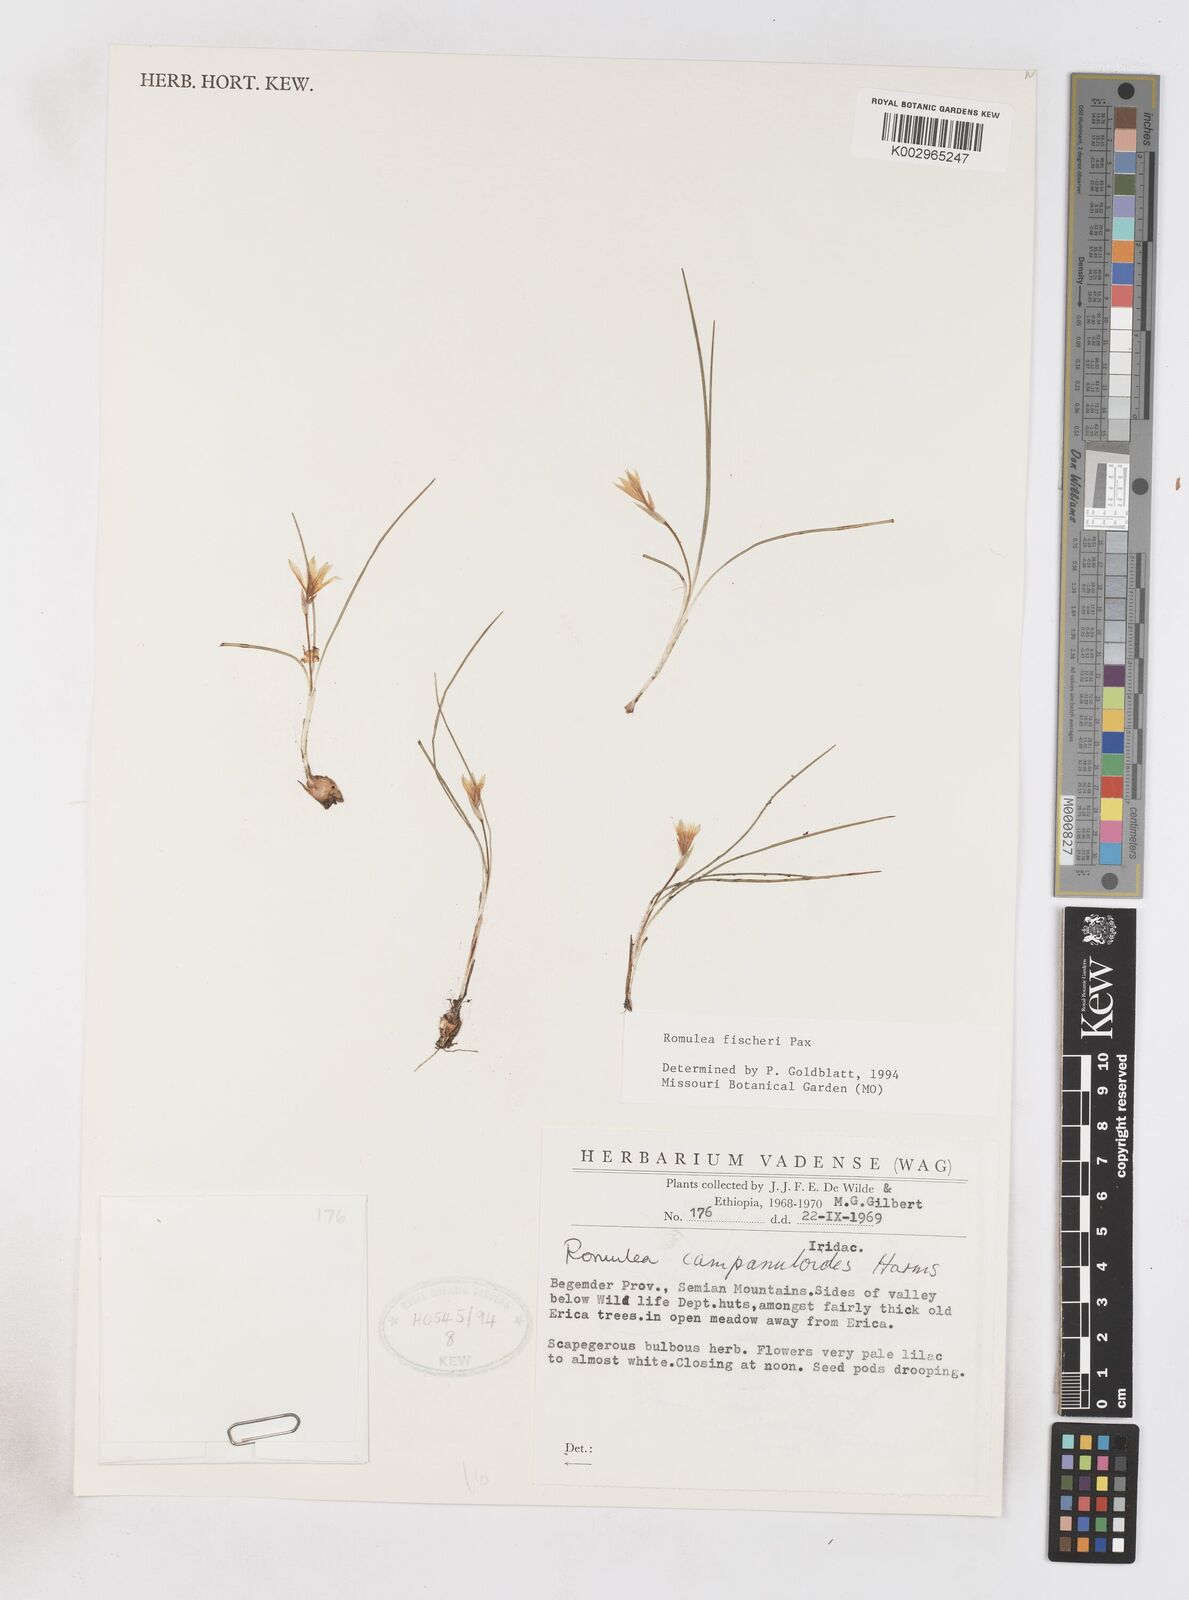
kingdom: Plantae
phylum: Tracheophyta
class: Liliopsida
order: Asparagales
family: Iridaceae
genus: Romulea
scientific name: Romulea fischeri
